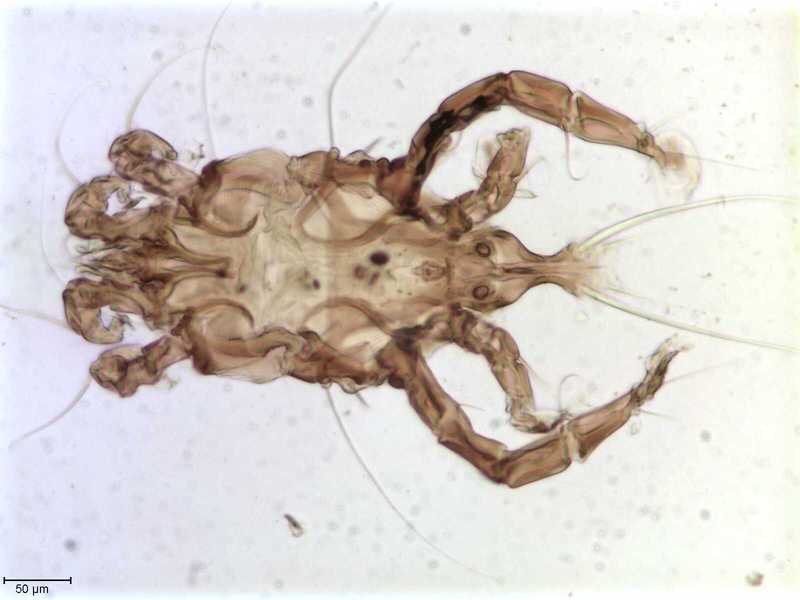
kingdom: Animalia
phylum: Arthropoda
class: Arachnida
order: Sarcoptiformes
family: Trouessartiidae
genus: Calcealges
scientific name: Calcealges
